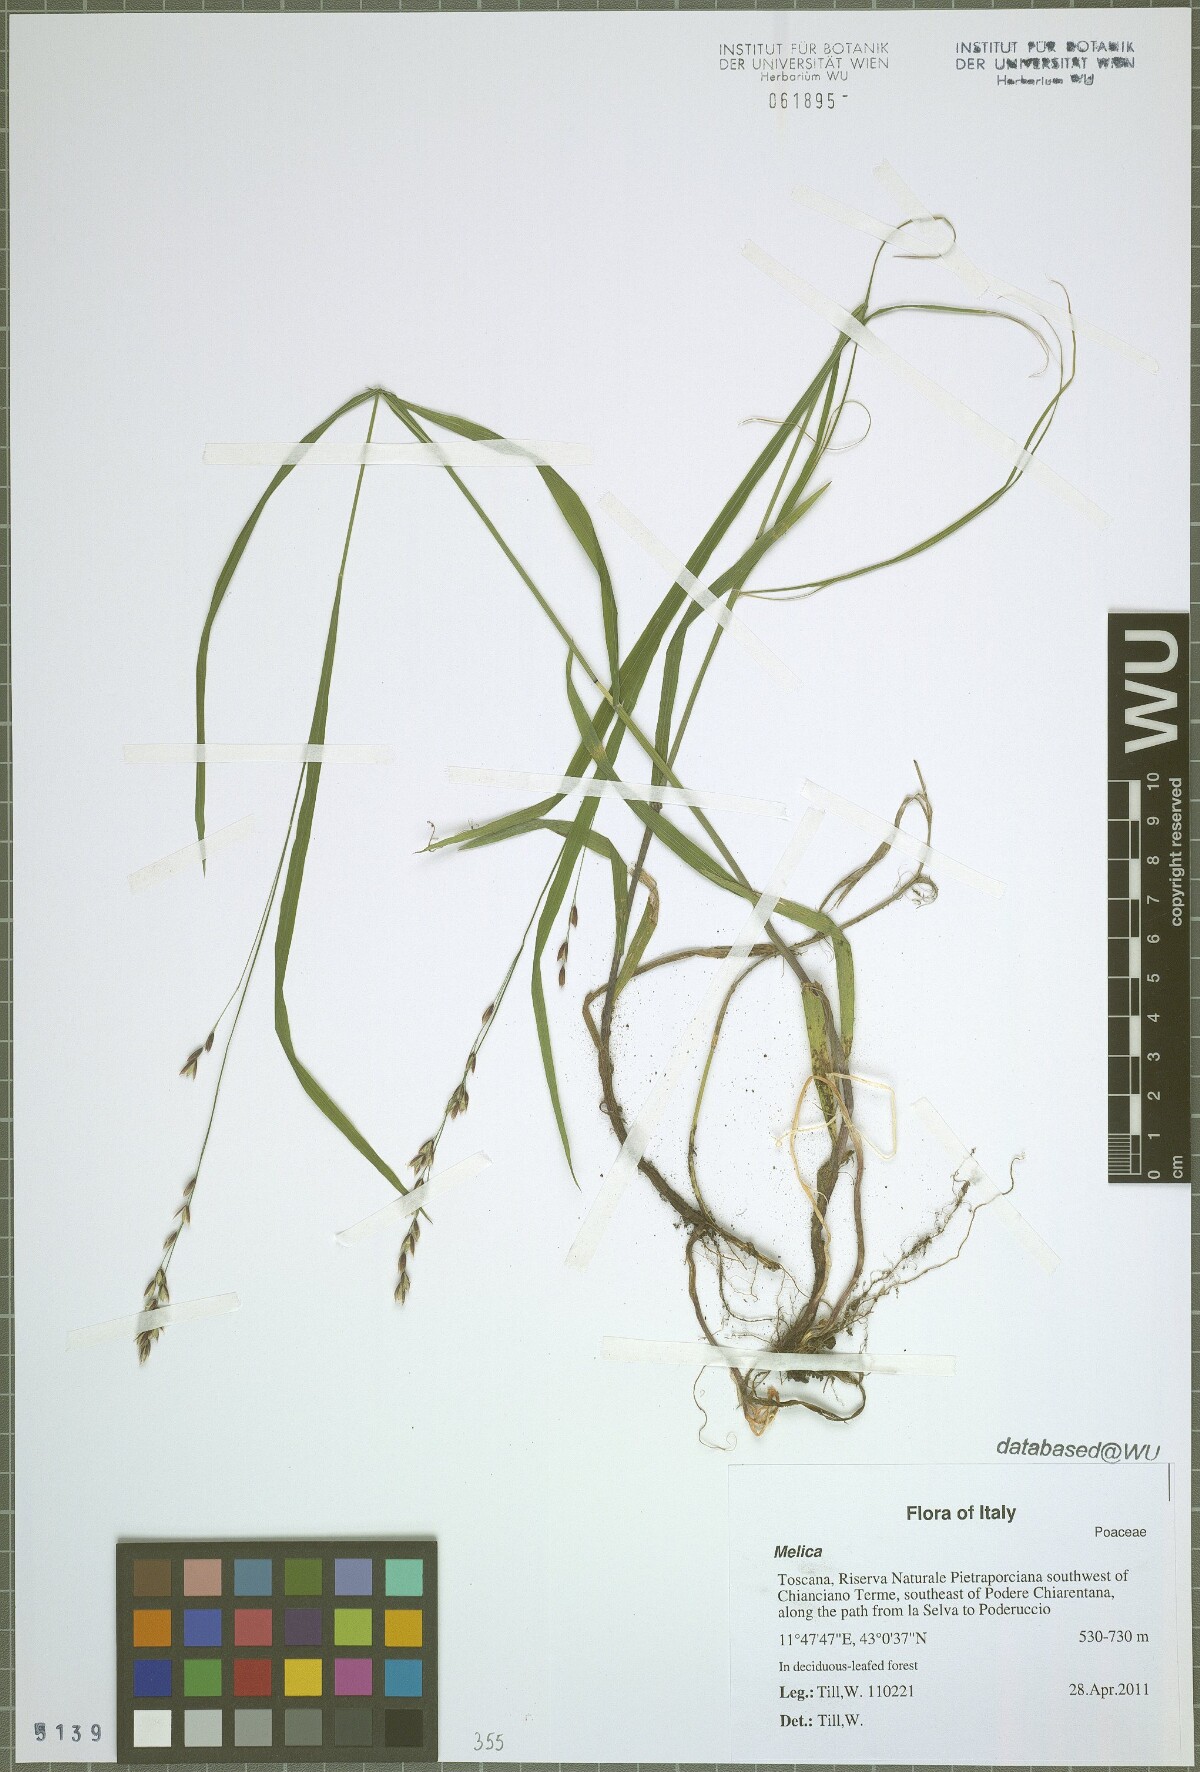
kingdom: Plantae
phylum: Tracheophyta
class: Liliopsida
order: Poales
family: Poaceae
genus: Melica
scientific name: Melica uniflora
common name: Wood melick
